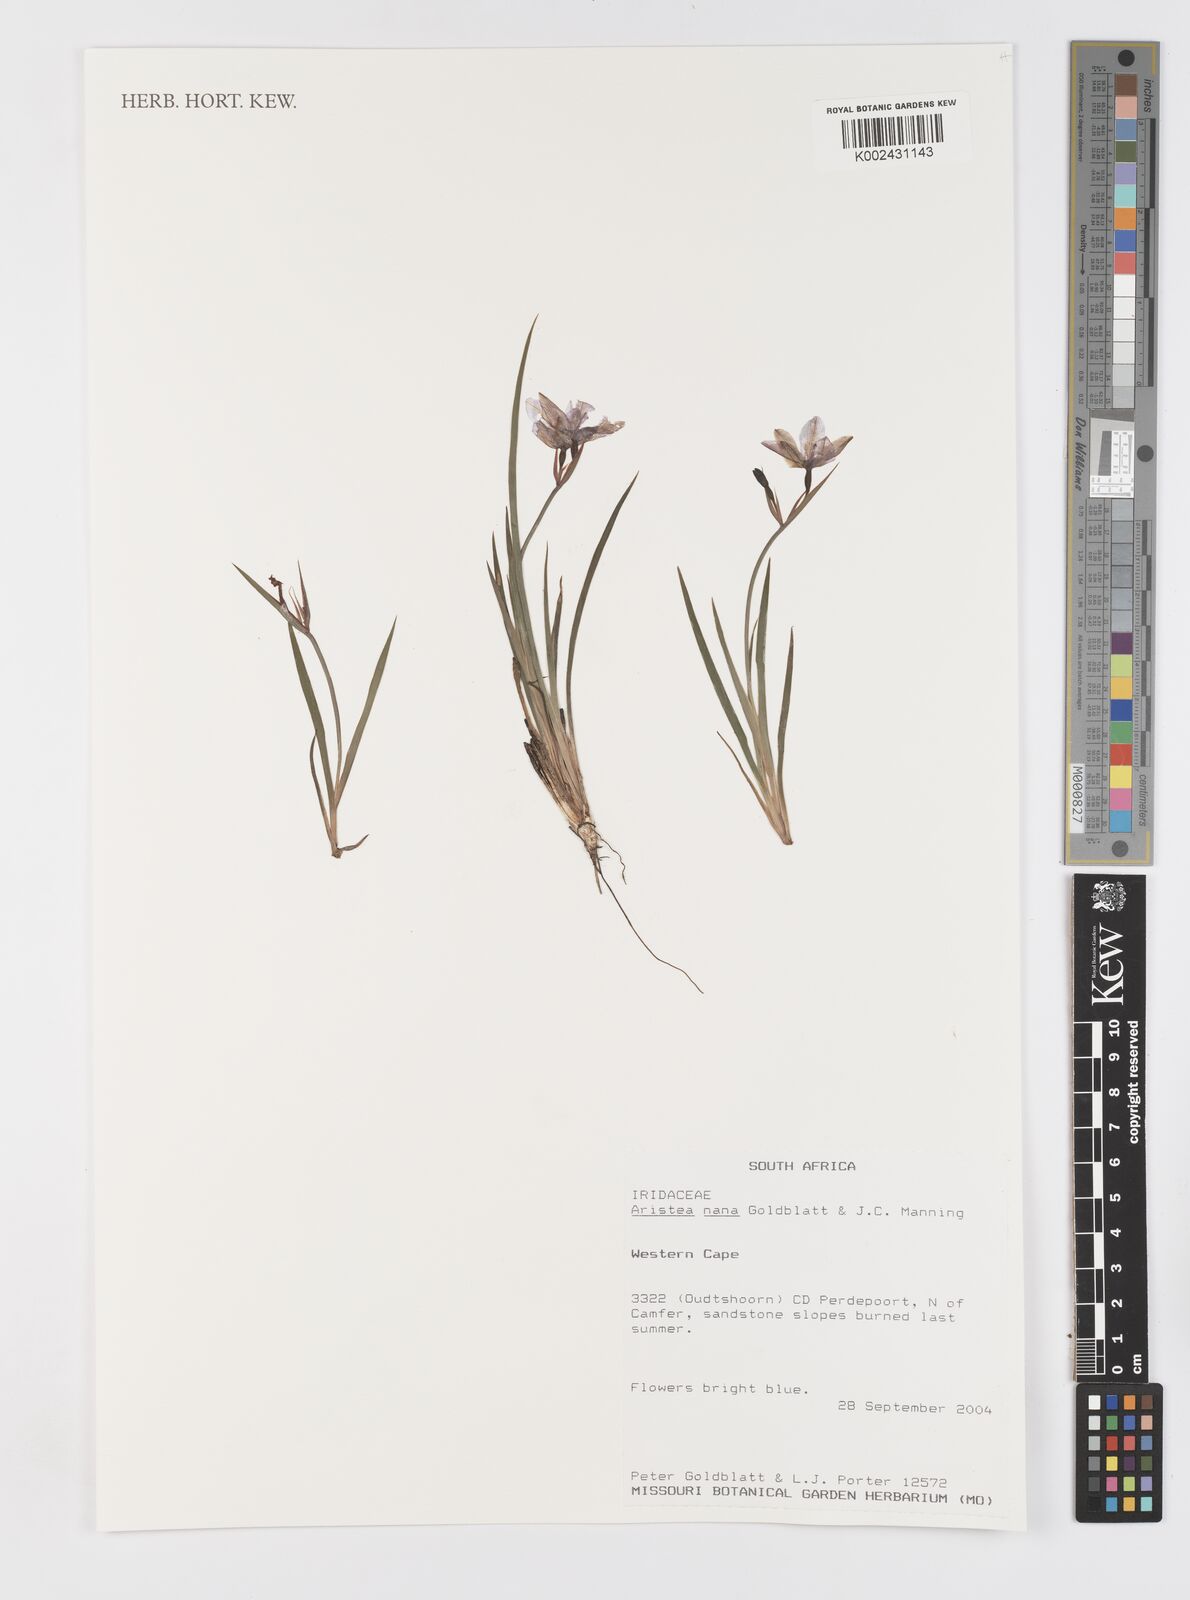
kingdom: Plantae
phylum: Tracheophyta
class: Liliopsida
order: Asparagales
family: Iridaceae
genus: Aristea
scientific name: Aristea nana
